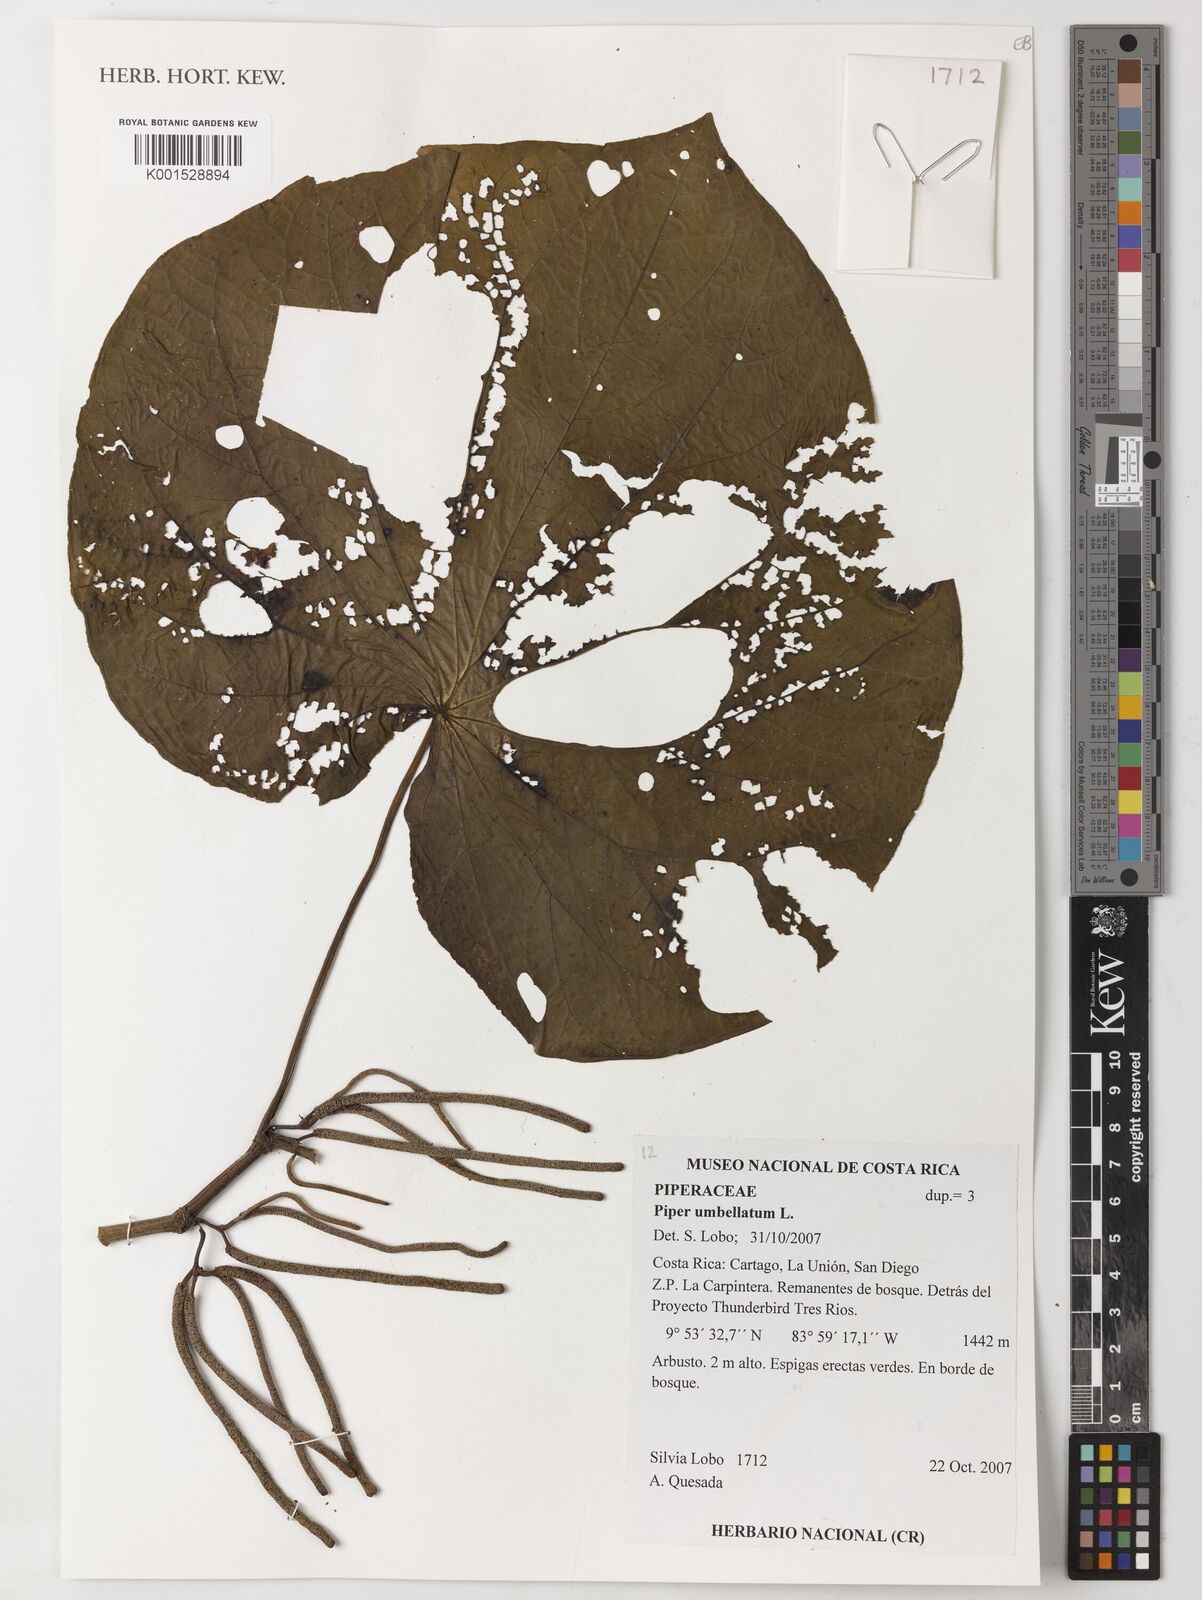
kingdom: Plantae
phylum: Tracheophyta
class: Magnoliopsida
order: Piperales
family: Piperaceae
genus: Piper
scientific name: Piper umbellatum
